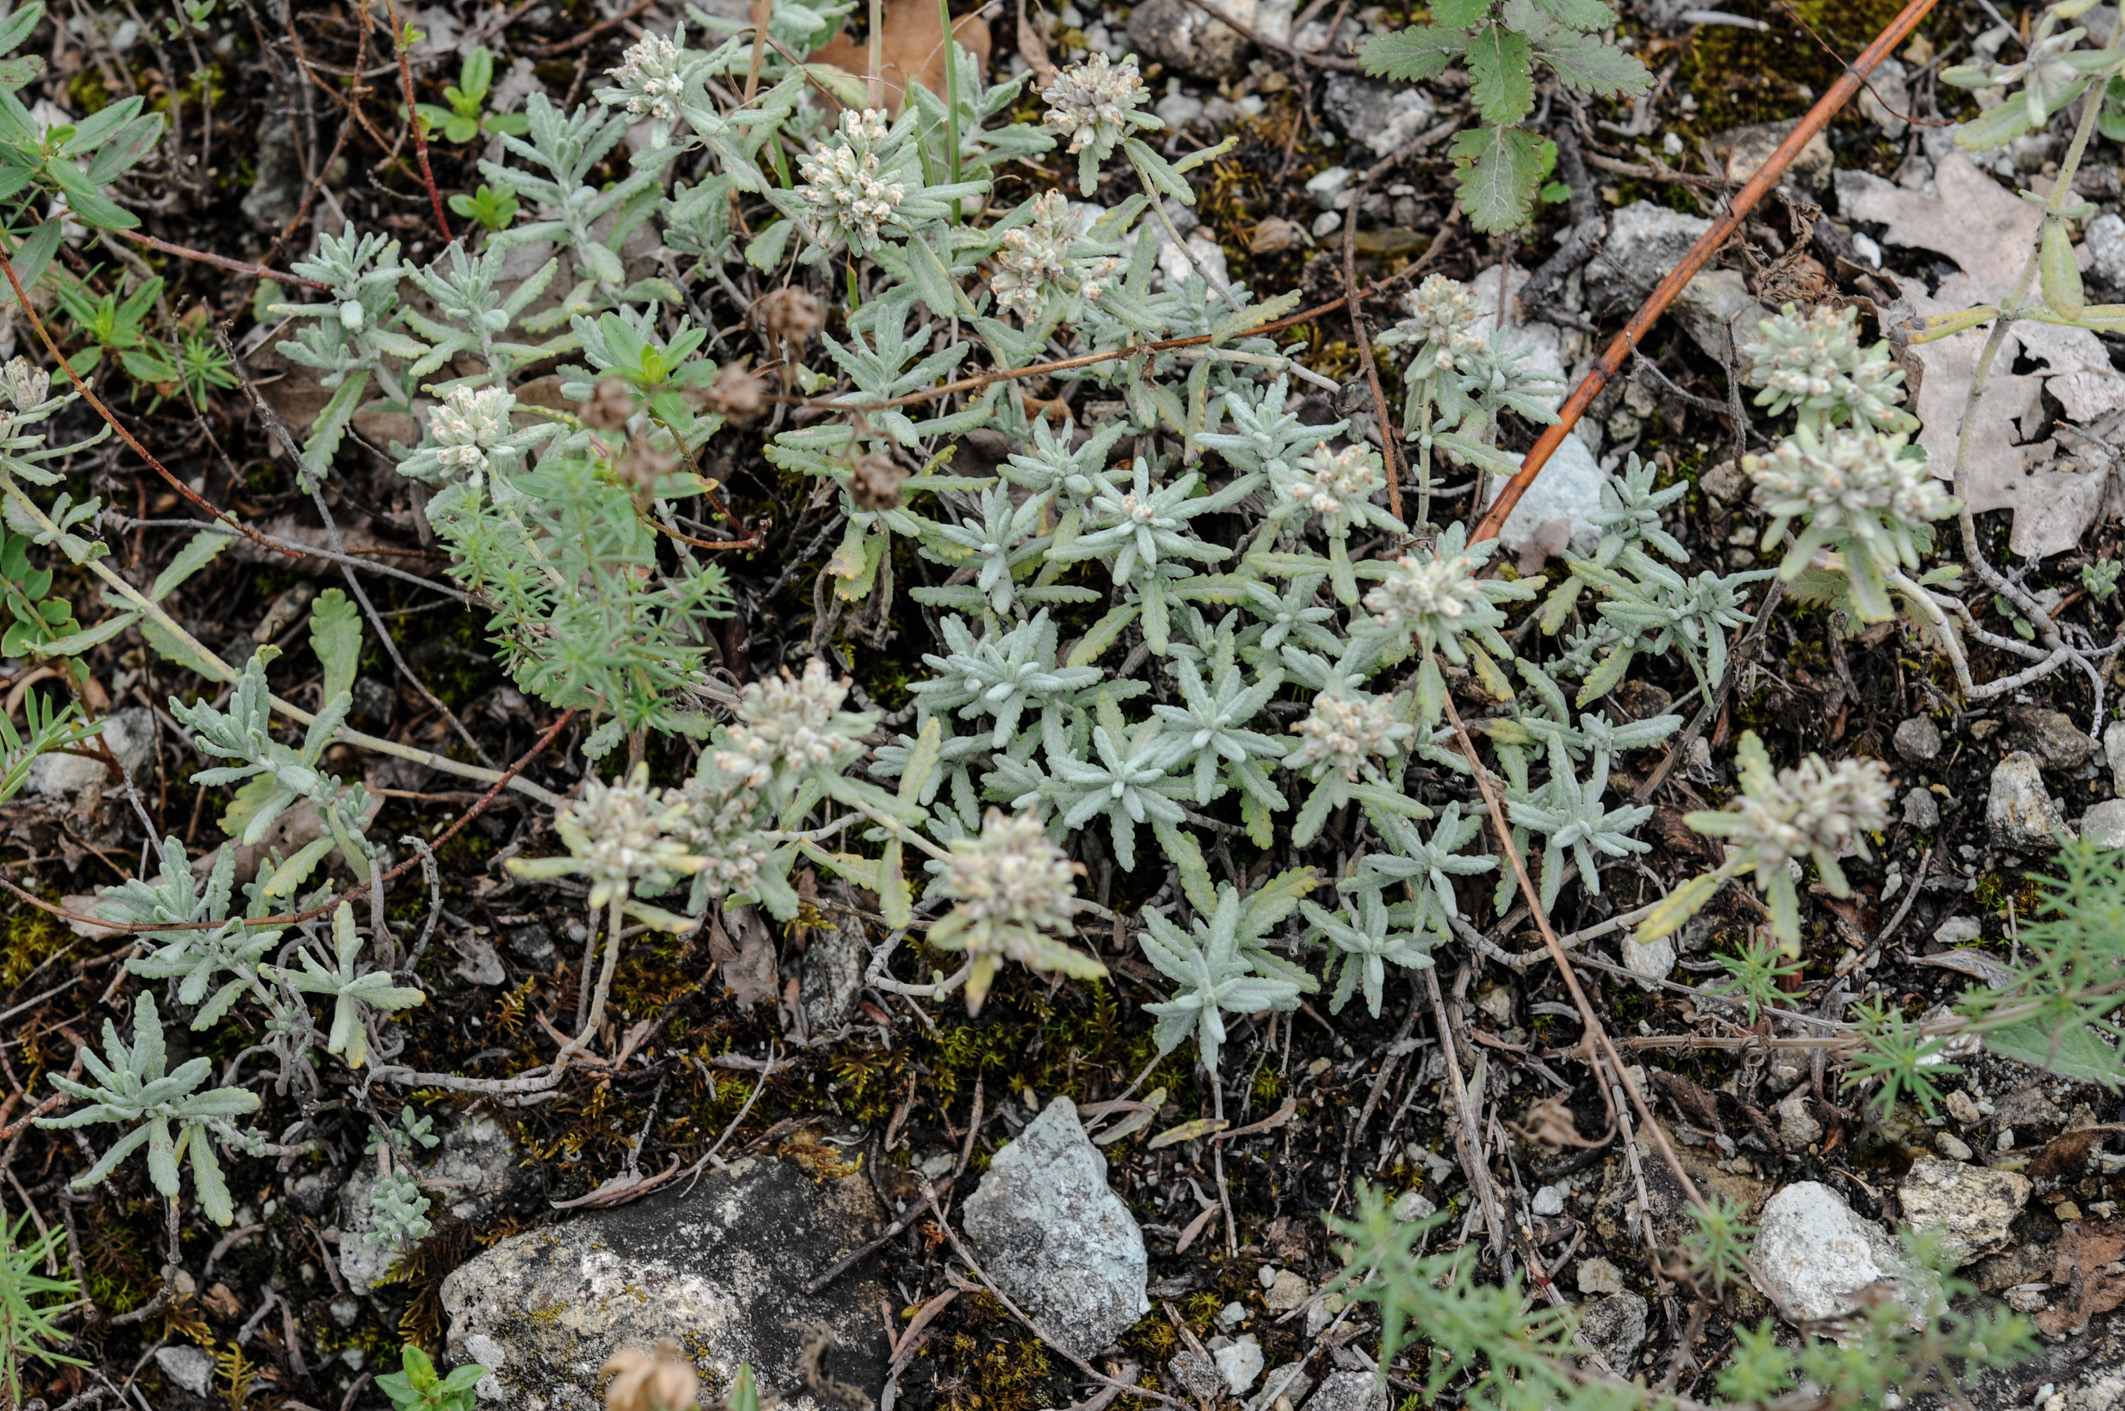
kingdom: Plantae
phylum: Tracheophyta
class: Magnoliopsida
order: Lamiales
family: Lamiaceae
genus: Teucrium
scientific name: Teucrium polium
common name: Poley
